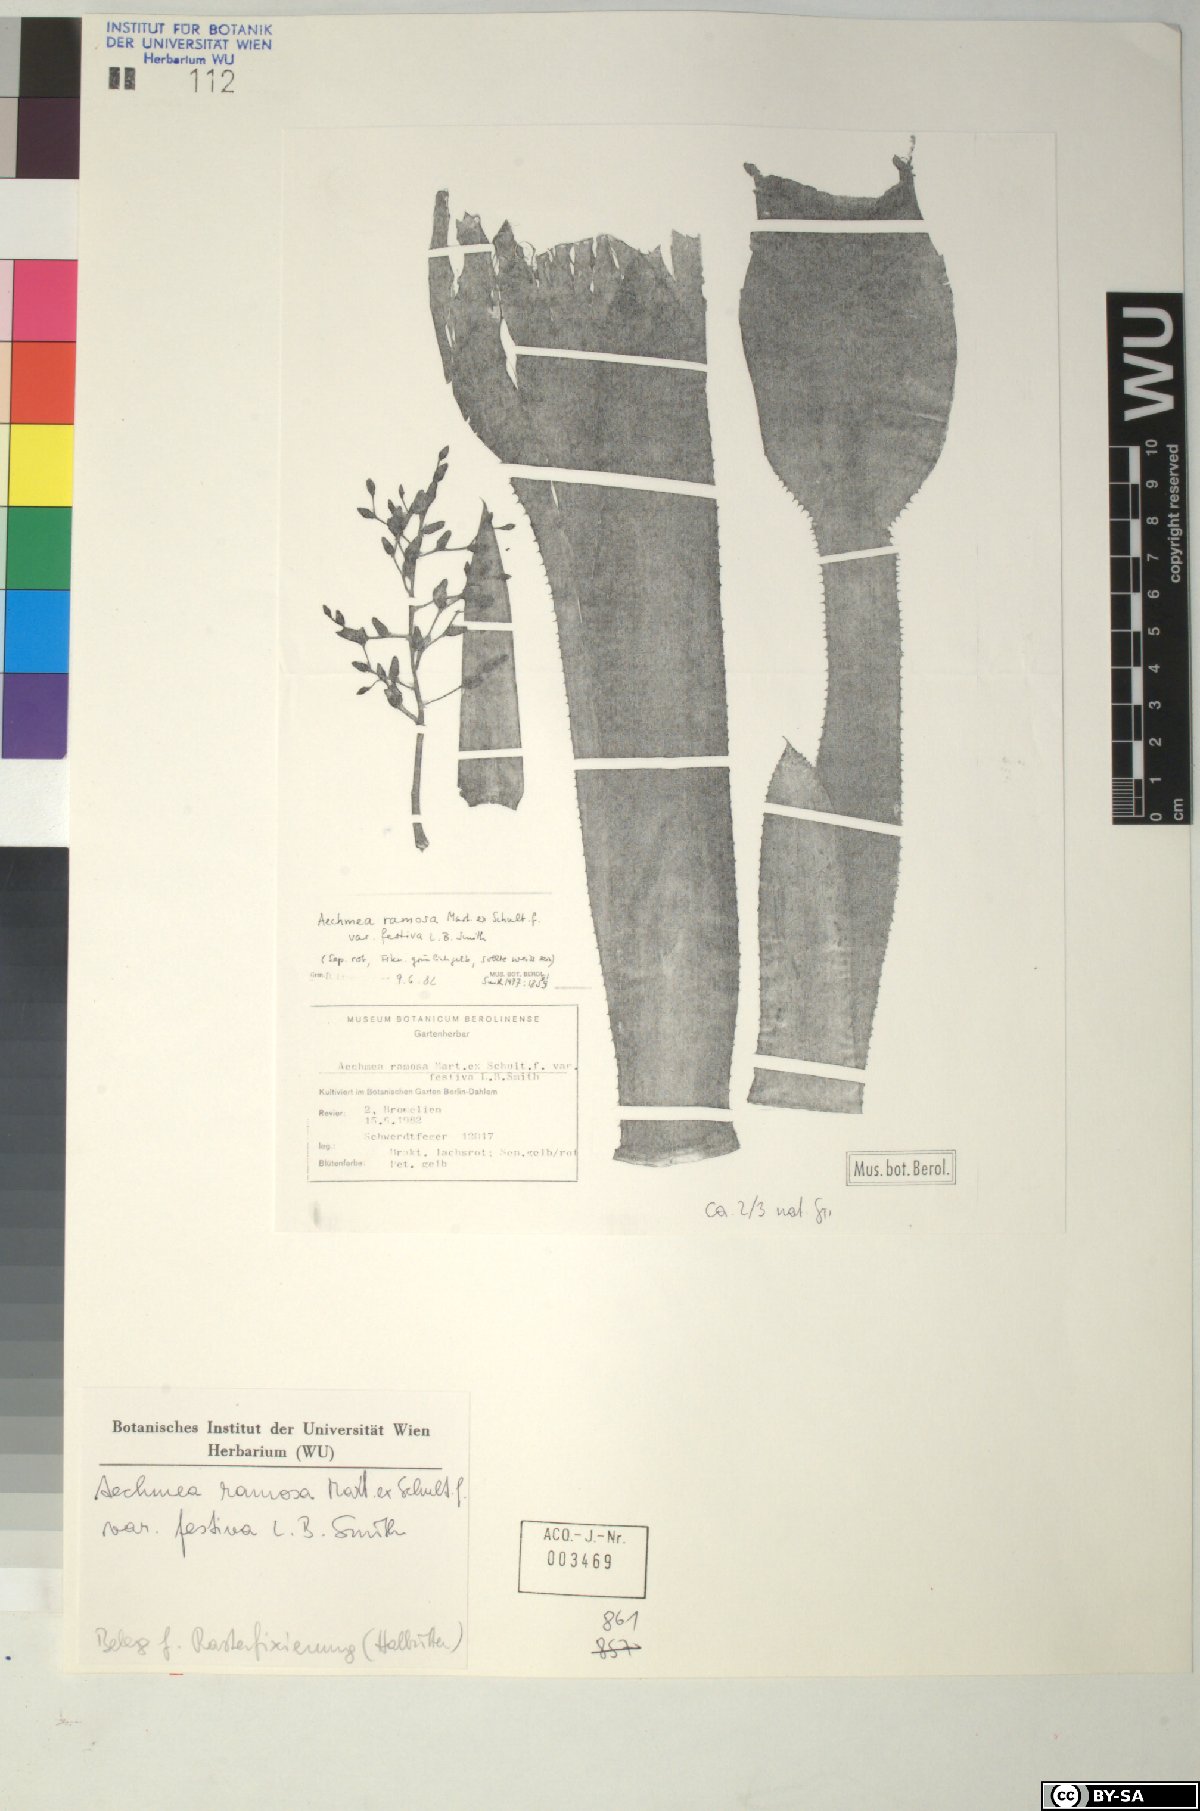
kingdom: Plantae
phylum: Tracheophyta
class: Liliopsida
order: Poales
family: Bromeliaceae
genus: Aechmea
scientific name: Aechmea
